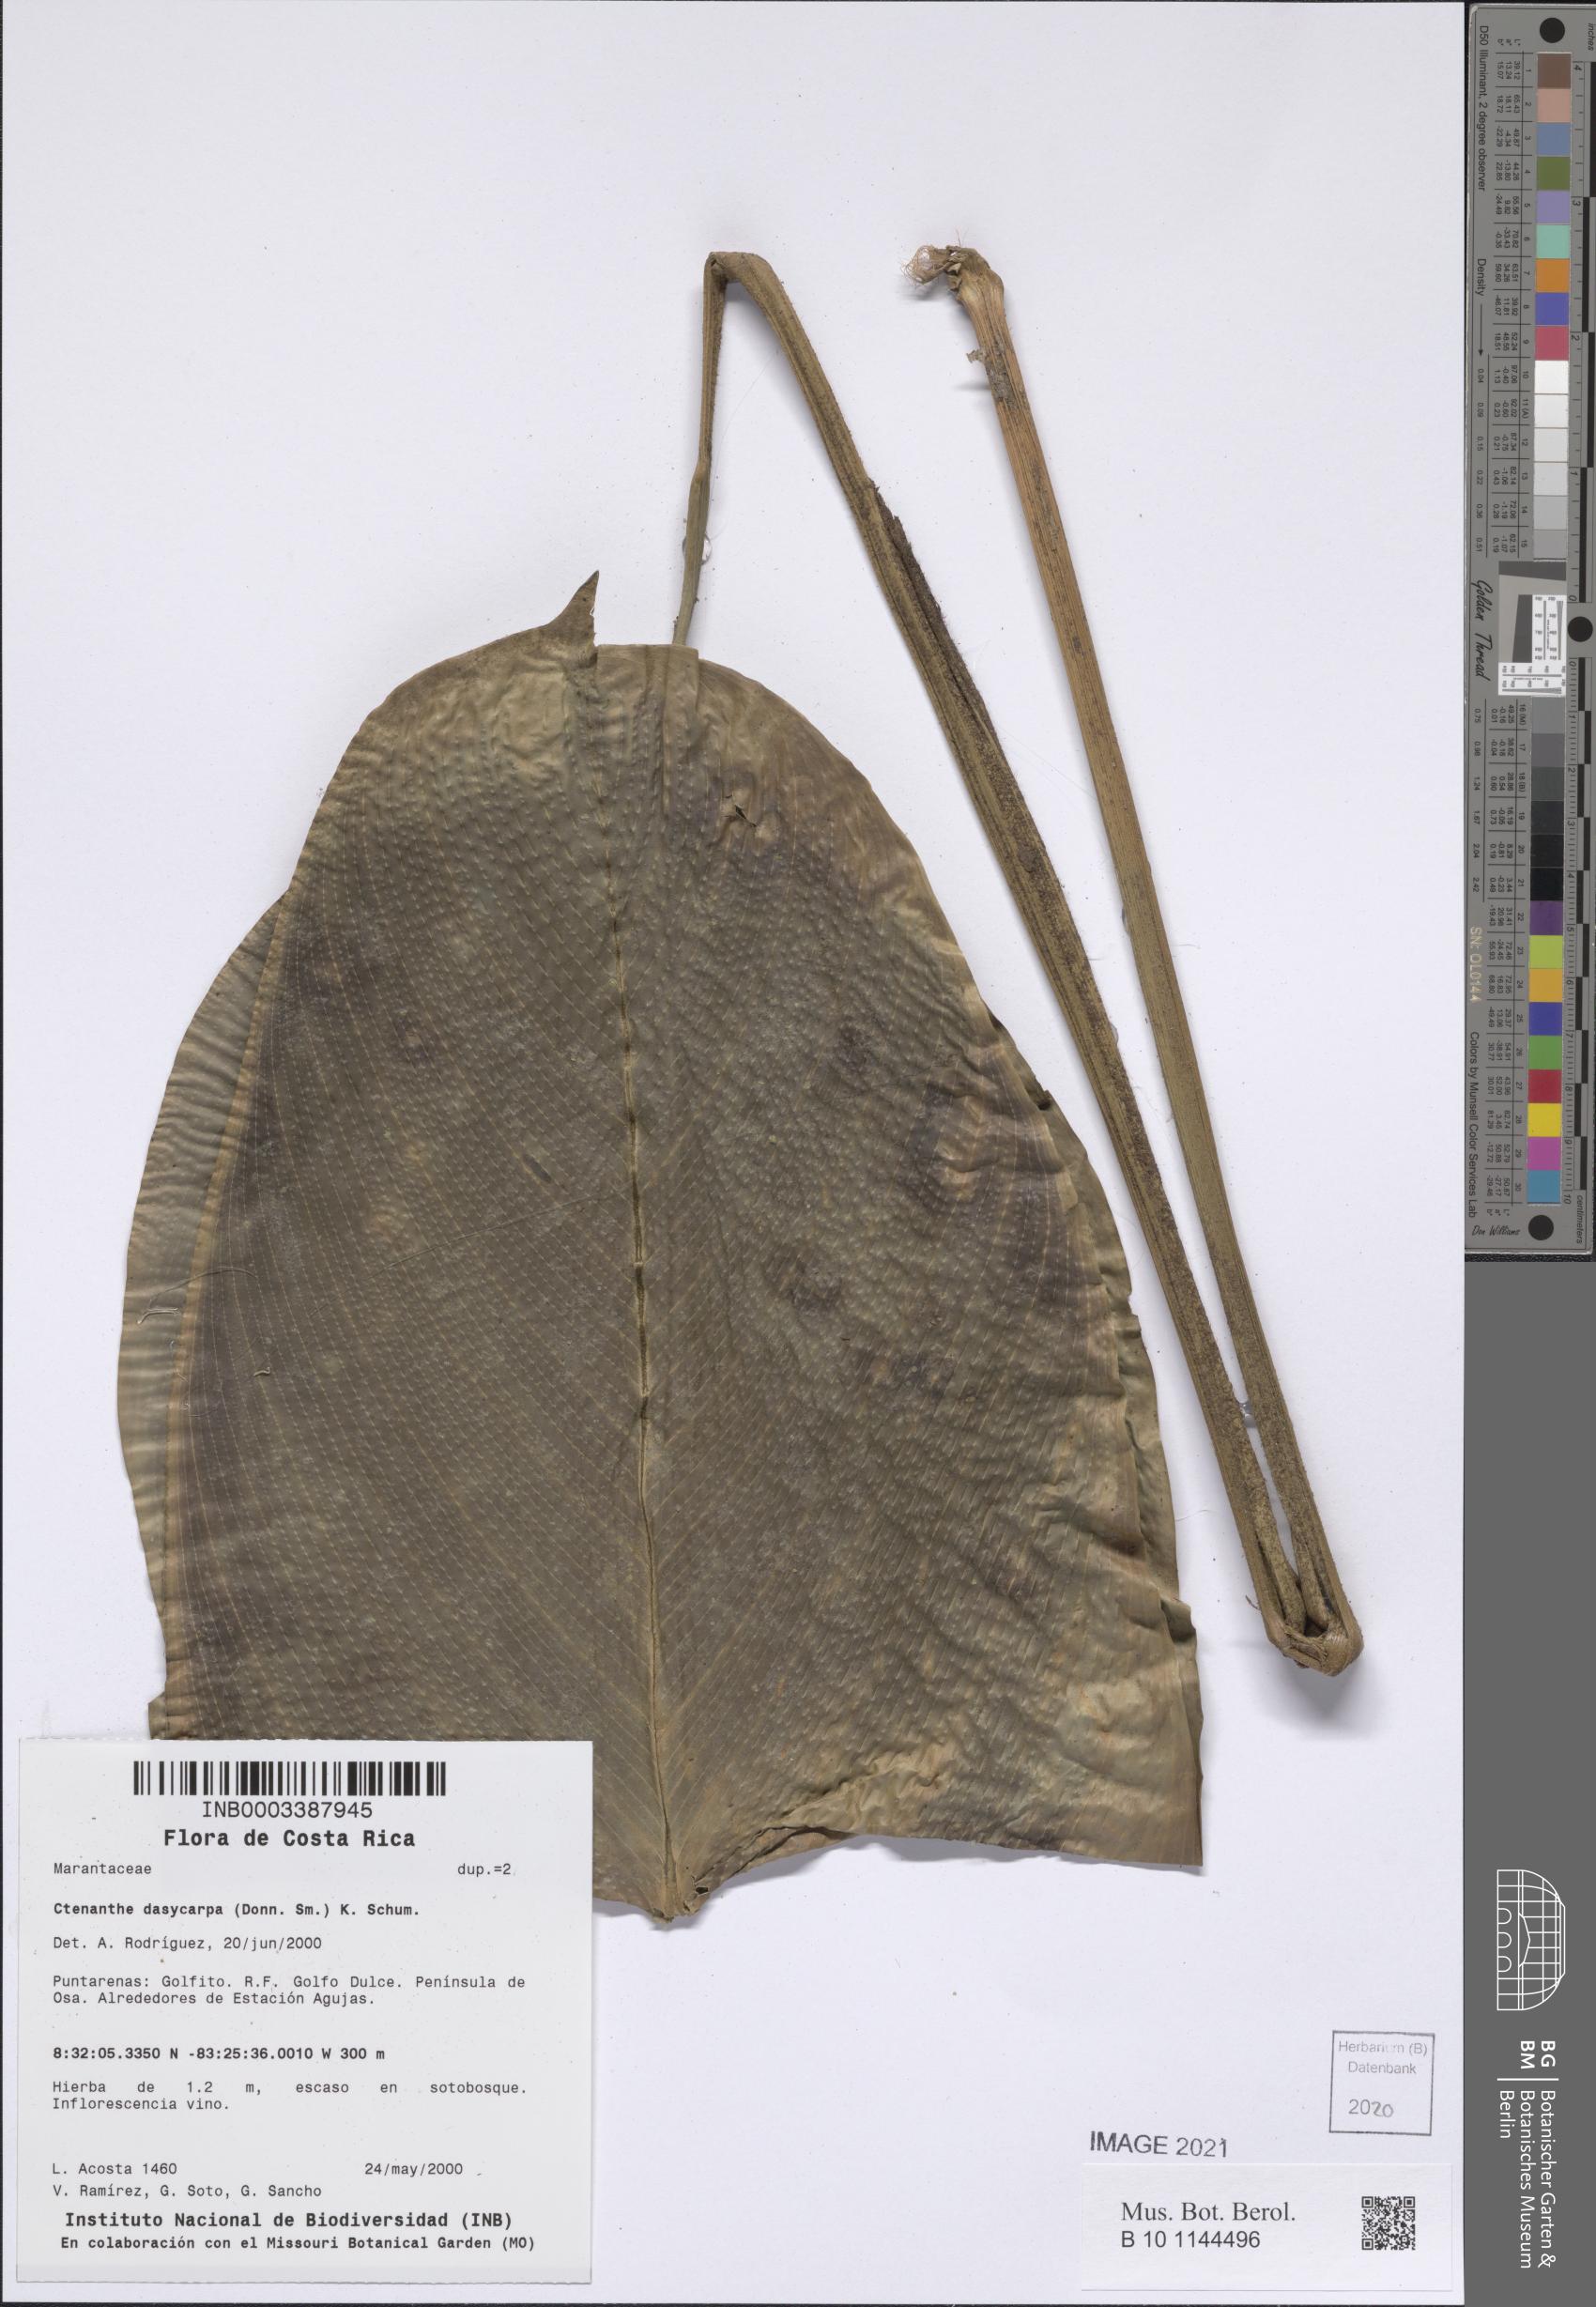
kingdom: Plantae
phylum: Tracheophyta
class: Liliopsida
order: Zingiberales
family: Marantaceae
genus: Ctenanthe
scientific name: Ctenanthe dasycarpa
